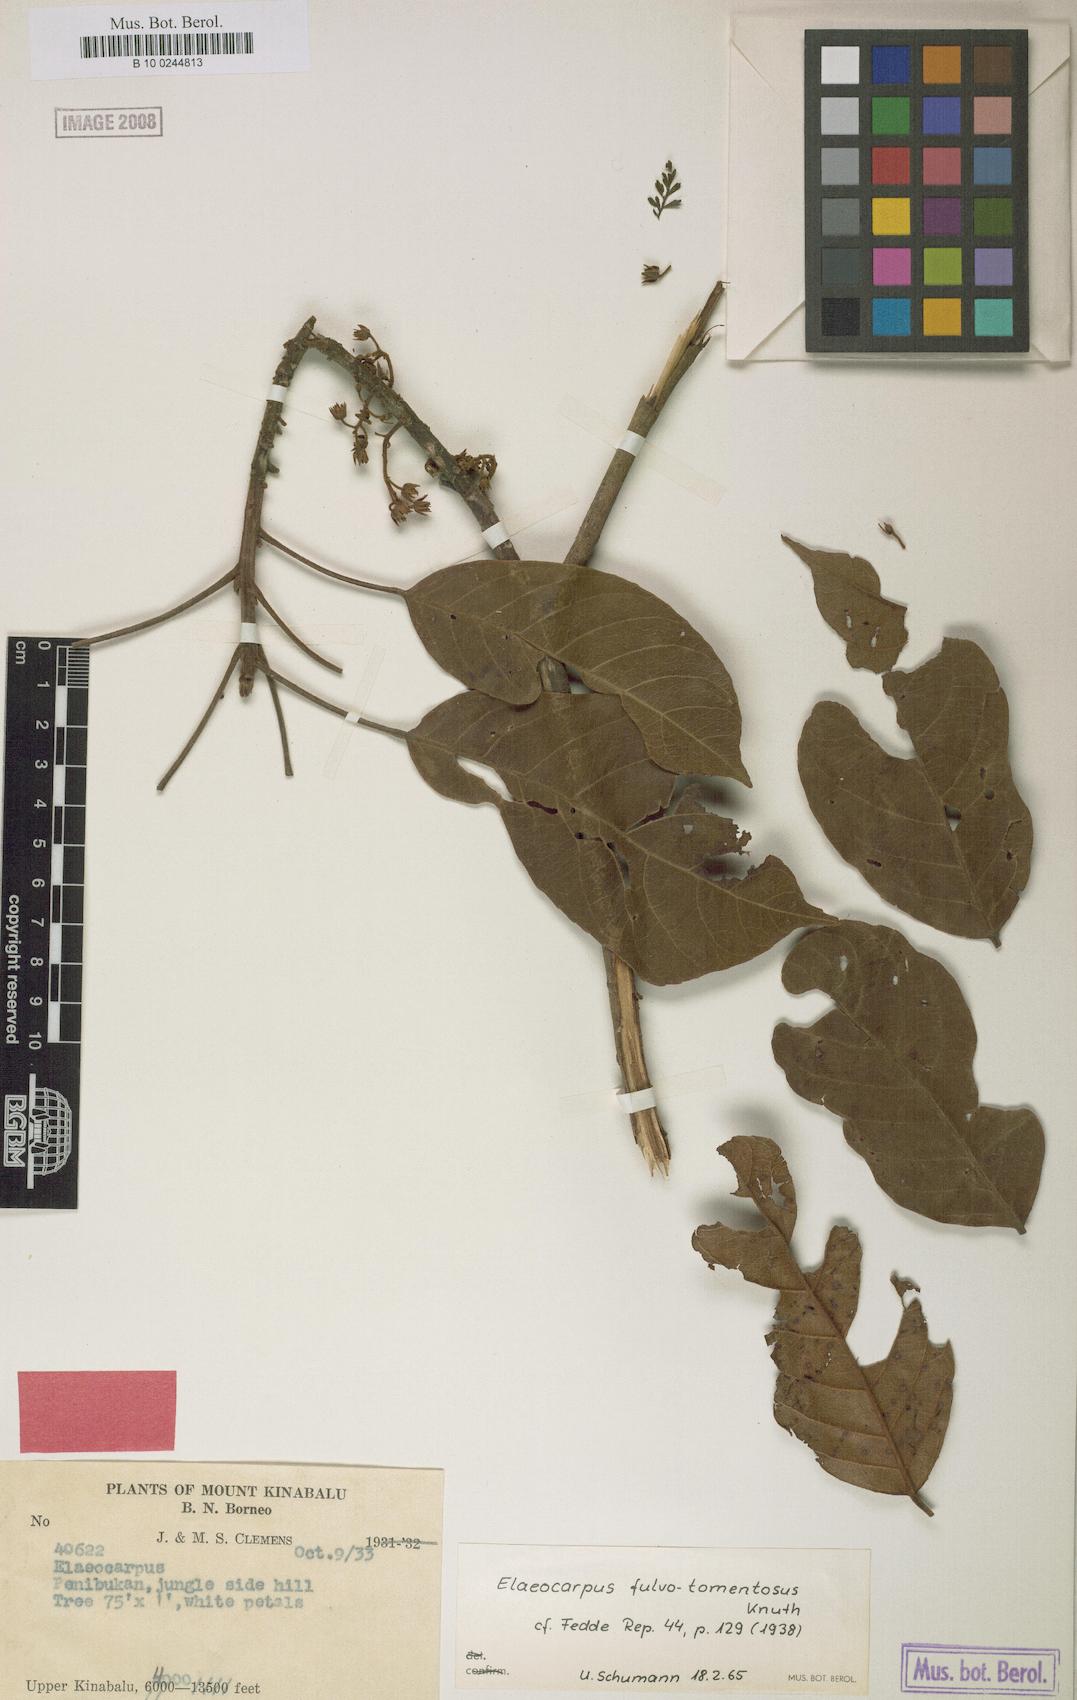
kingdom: Plantae
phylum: Tracheophyta
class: Magnoliopsida
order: Oxalidales
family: Elaeocarpaceae
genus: Elaeocarpus
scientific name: Elaeocarpus ferrugineus
